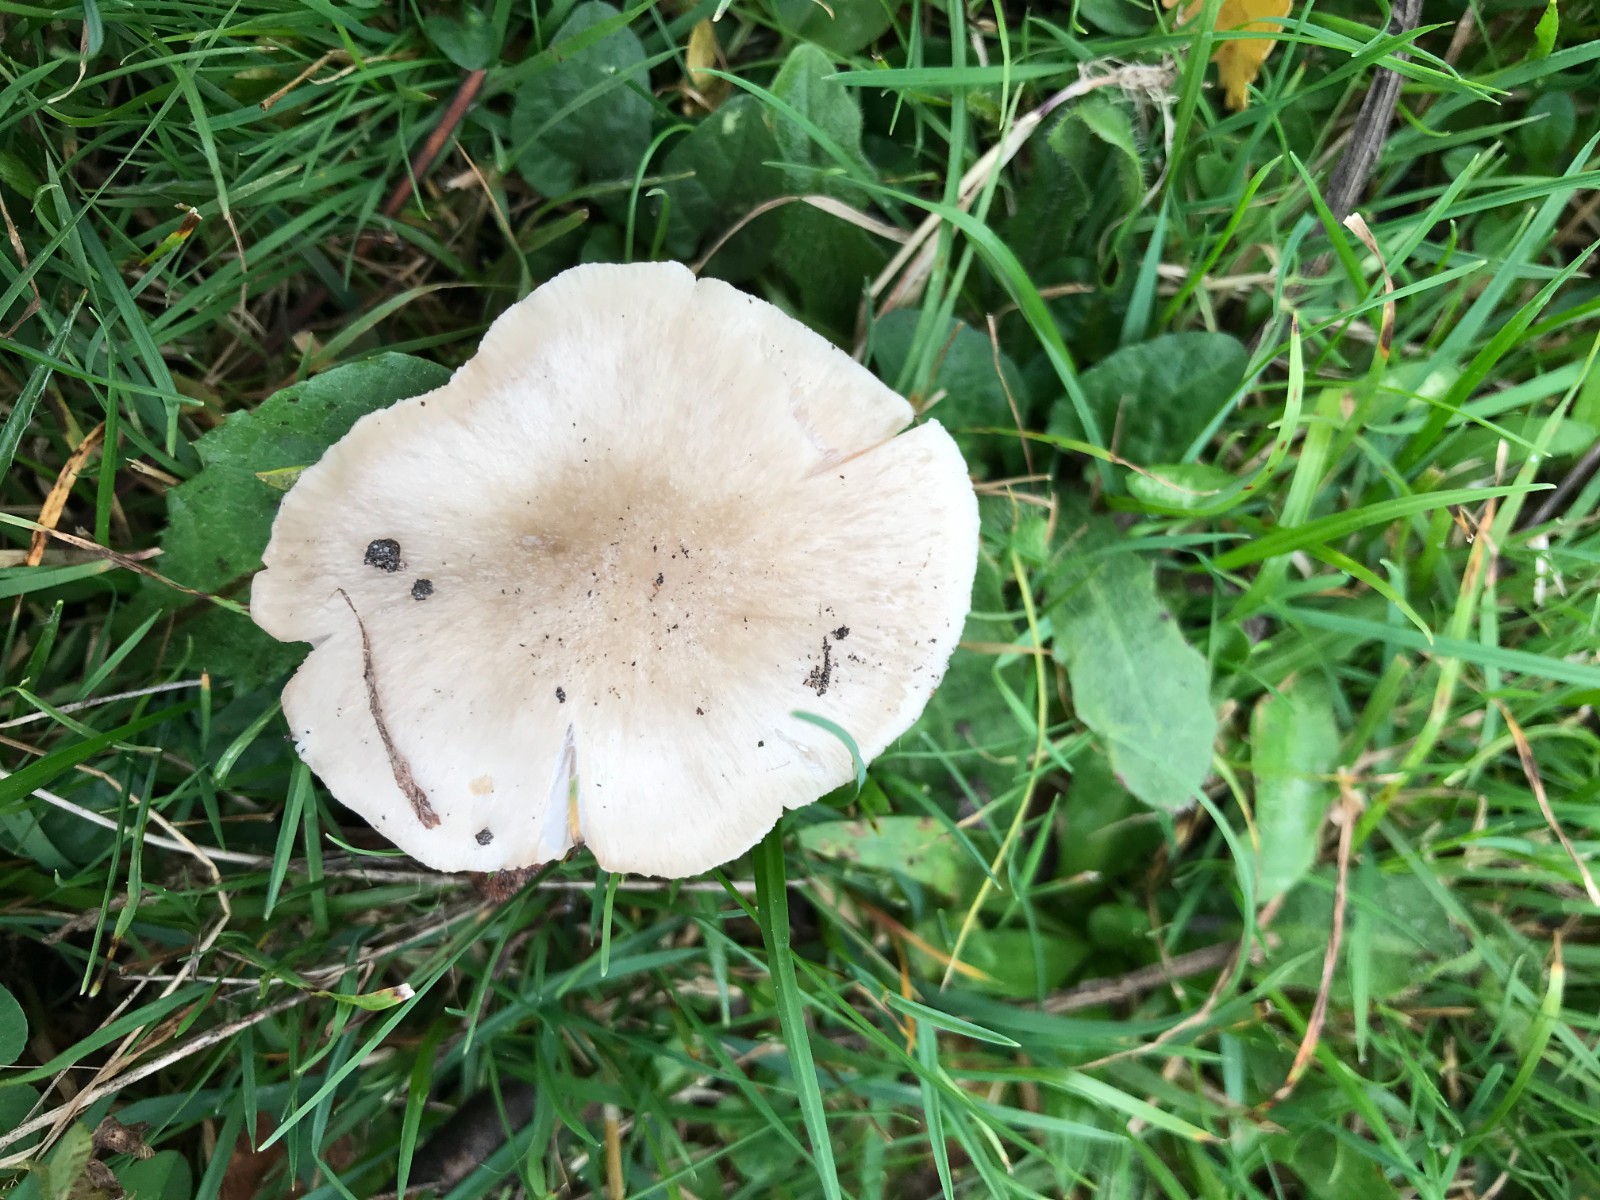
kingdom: Fungi
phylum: Basidiomycota
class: Agaricomycetes
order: Agaricales
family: Entolomataceae
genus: Entoloma
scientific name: Entoloma prunuloides
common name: mel-rødblad
